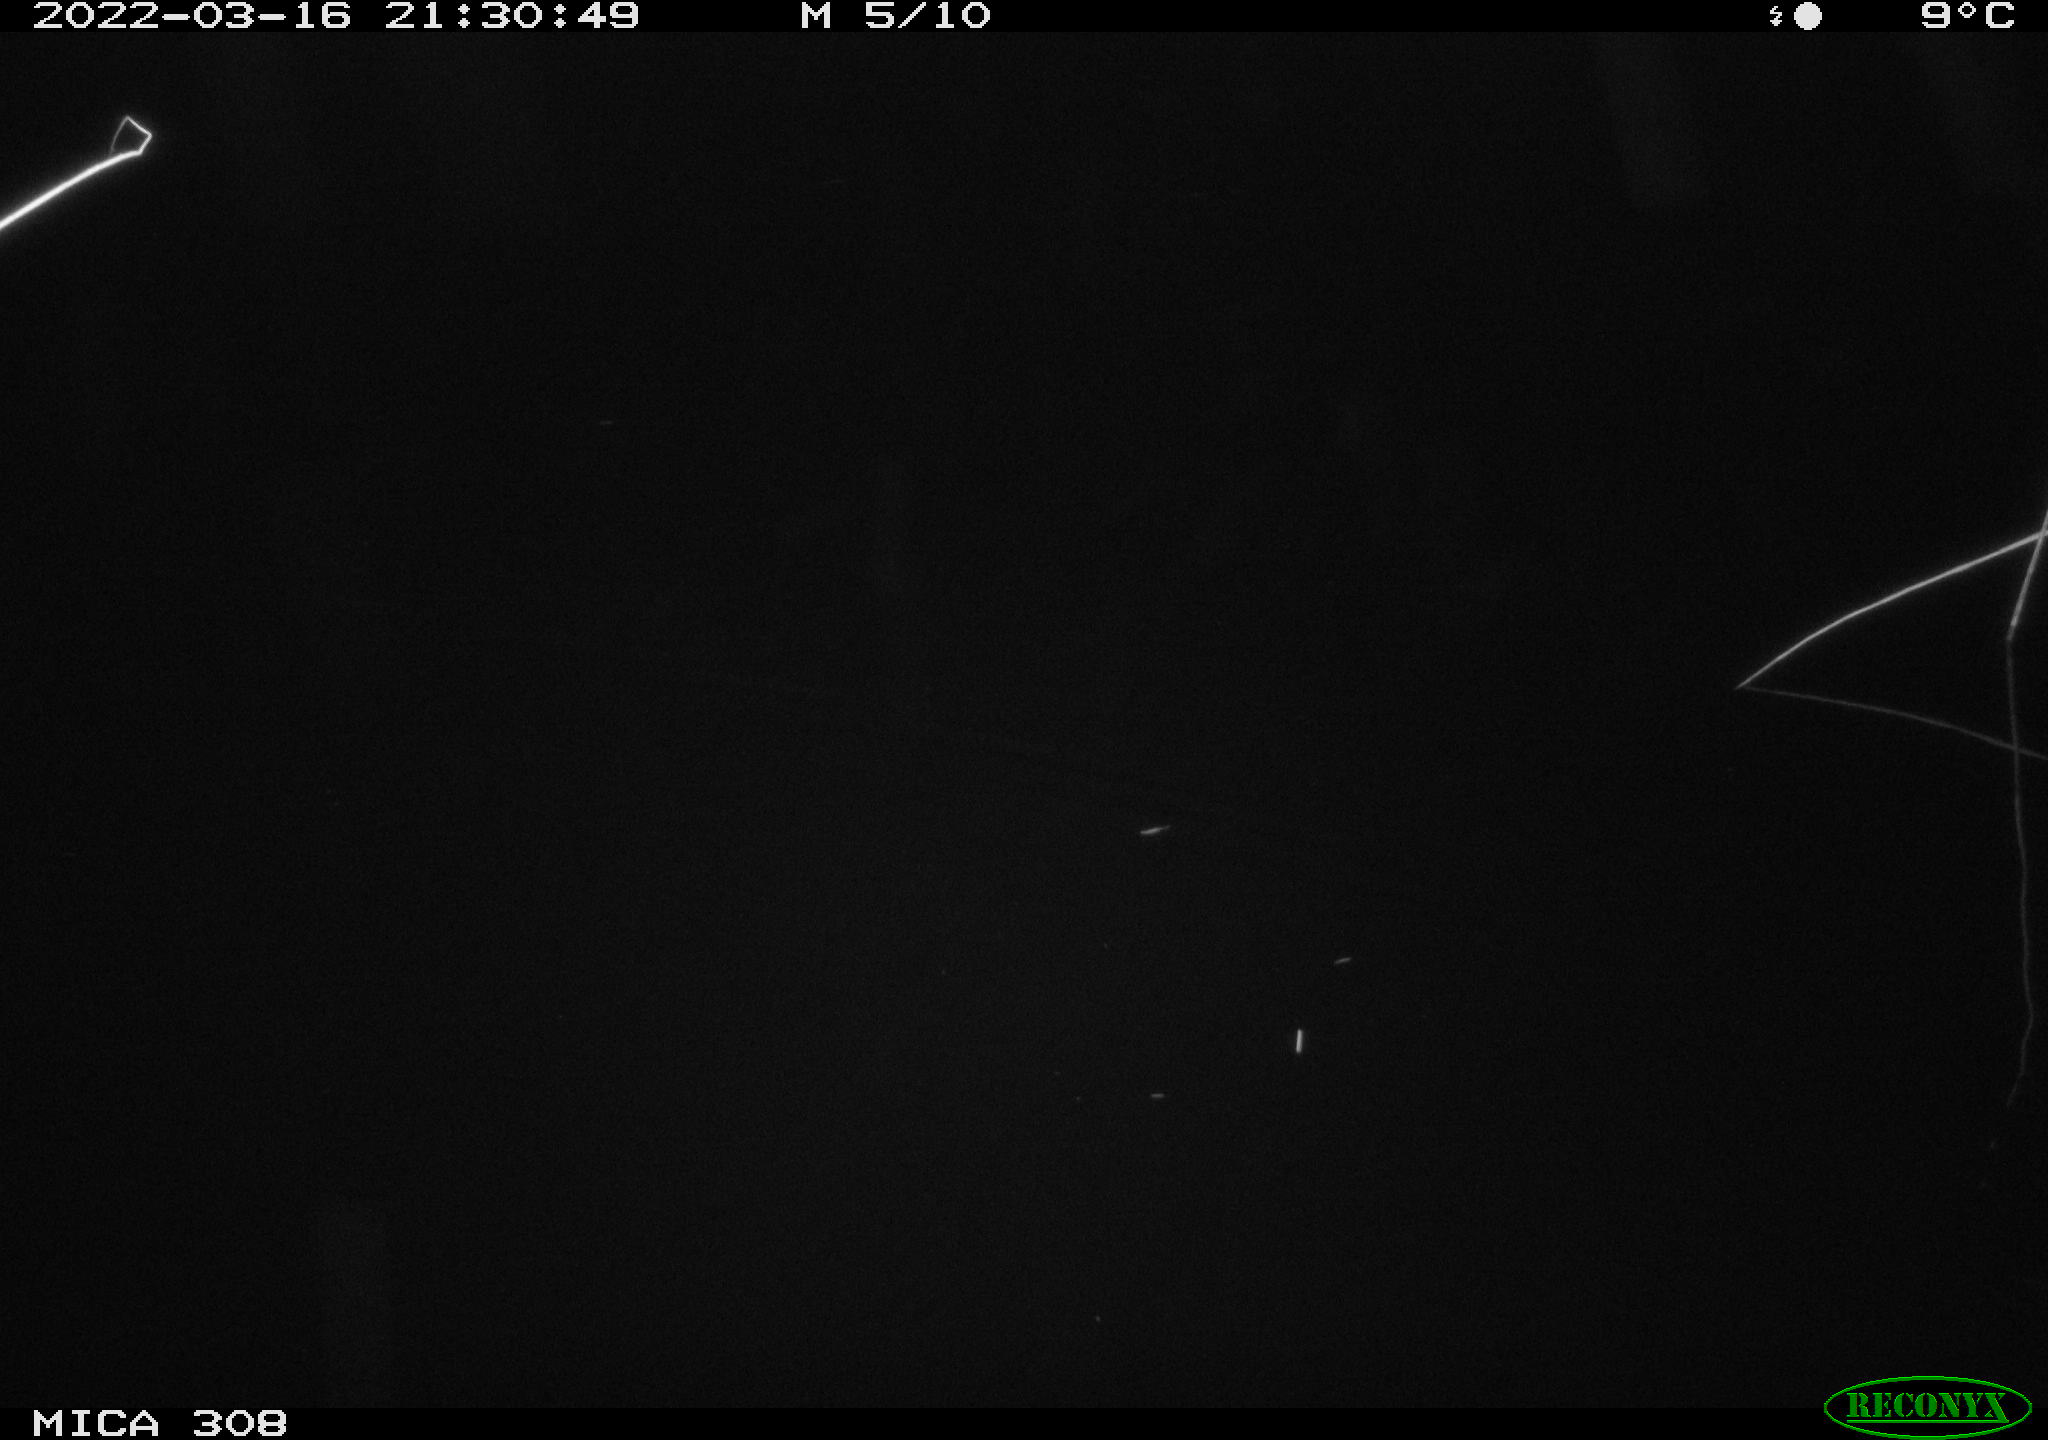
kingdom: Animalia
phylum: Chordata
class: Aves
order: Anseriformes
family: Anatidae
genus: Anas
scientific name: Anas platyrhynchos
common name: Mallard
